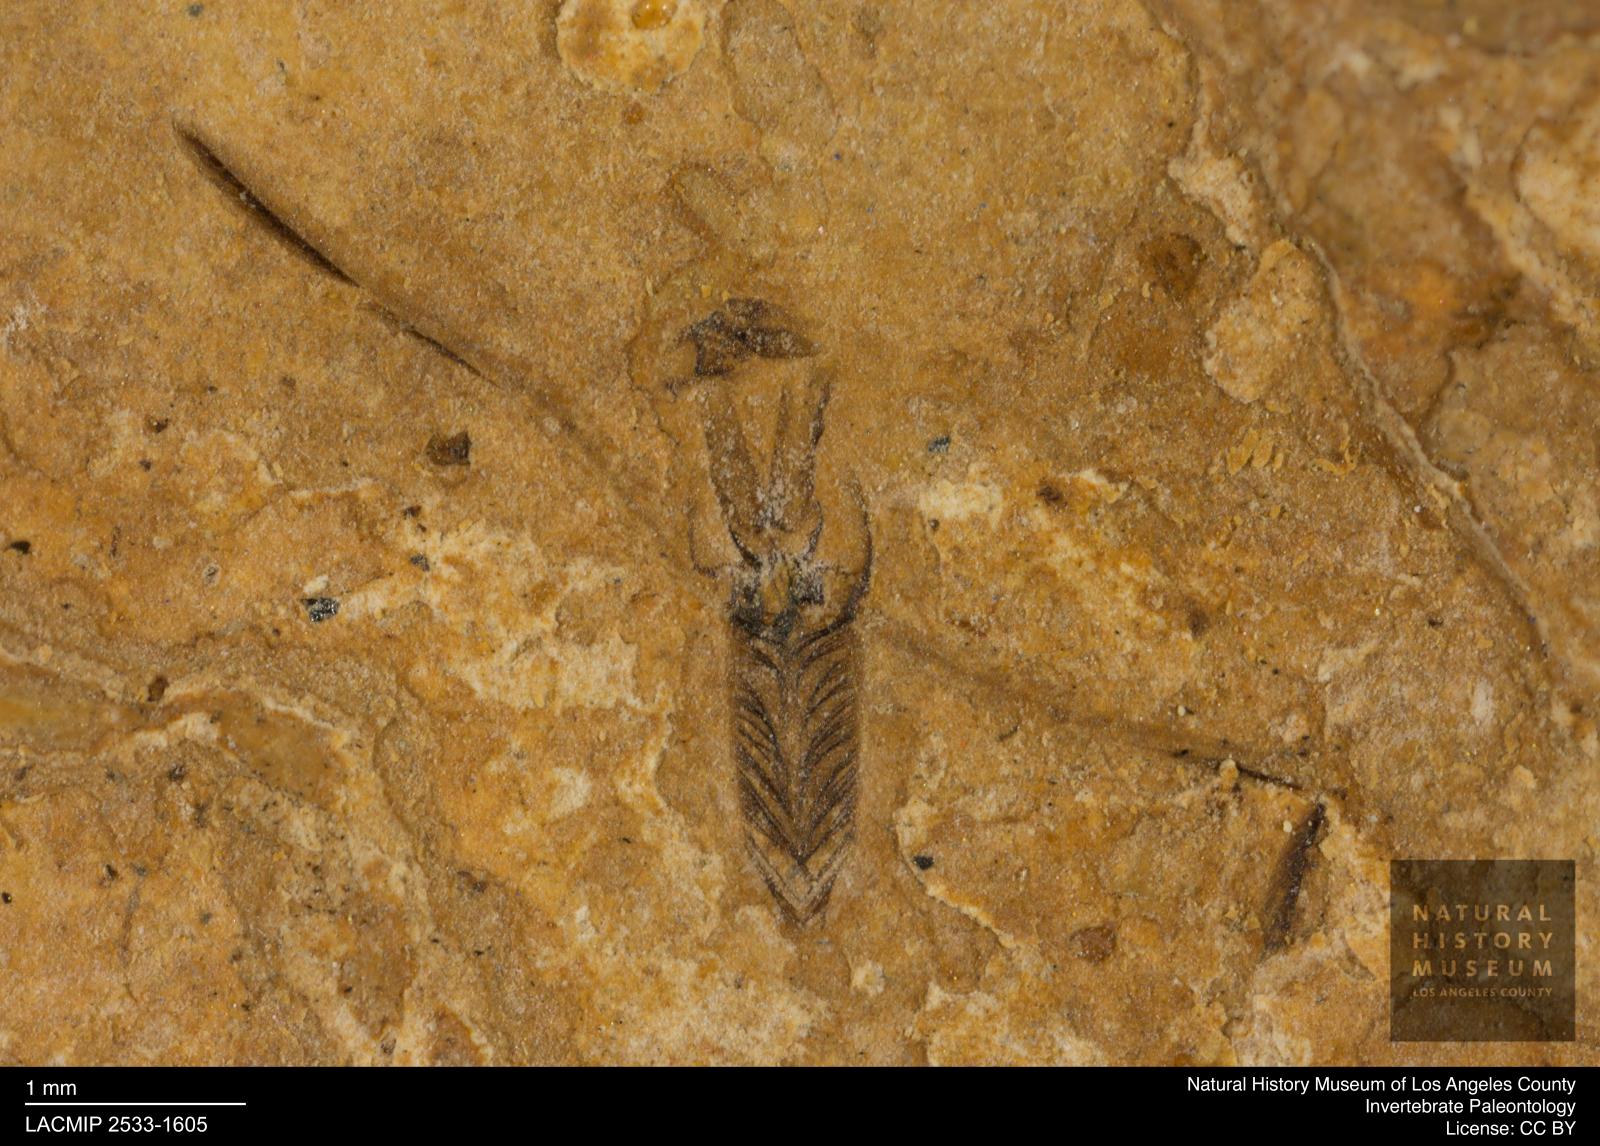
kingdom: Animalia
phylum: Arthropoda
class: Insecta
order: Hemiptera
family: Notonectidae
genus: Notonecta
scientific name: Notonecta
